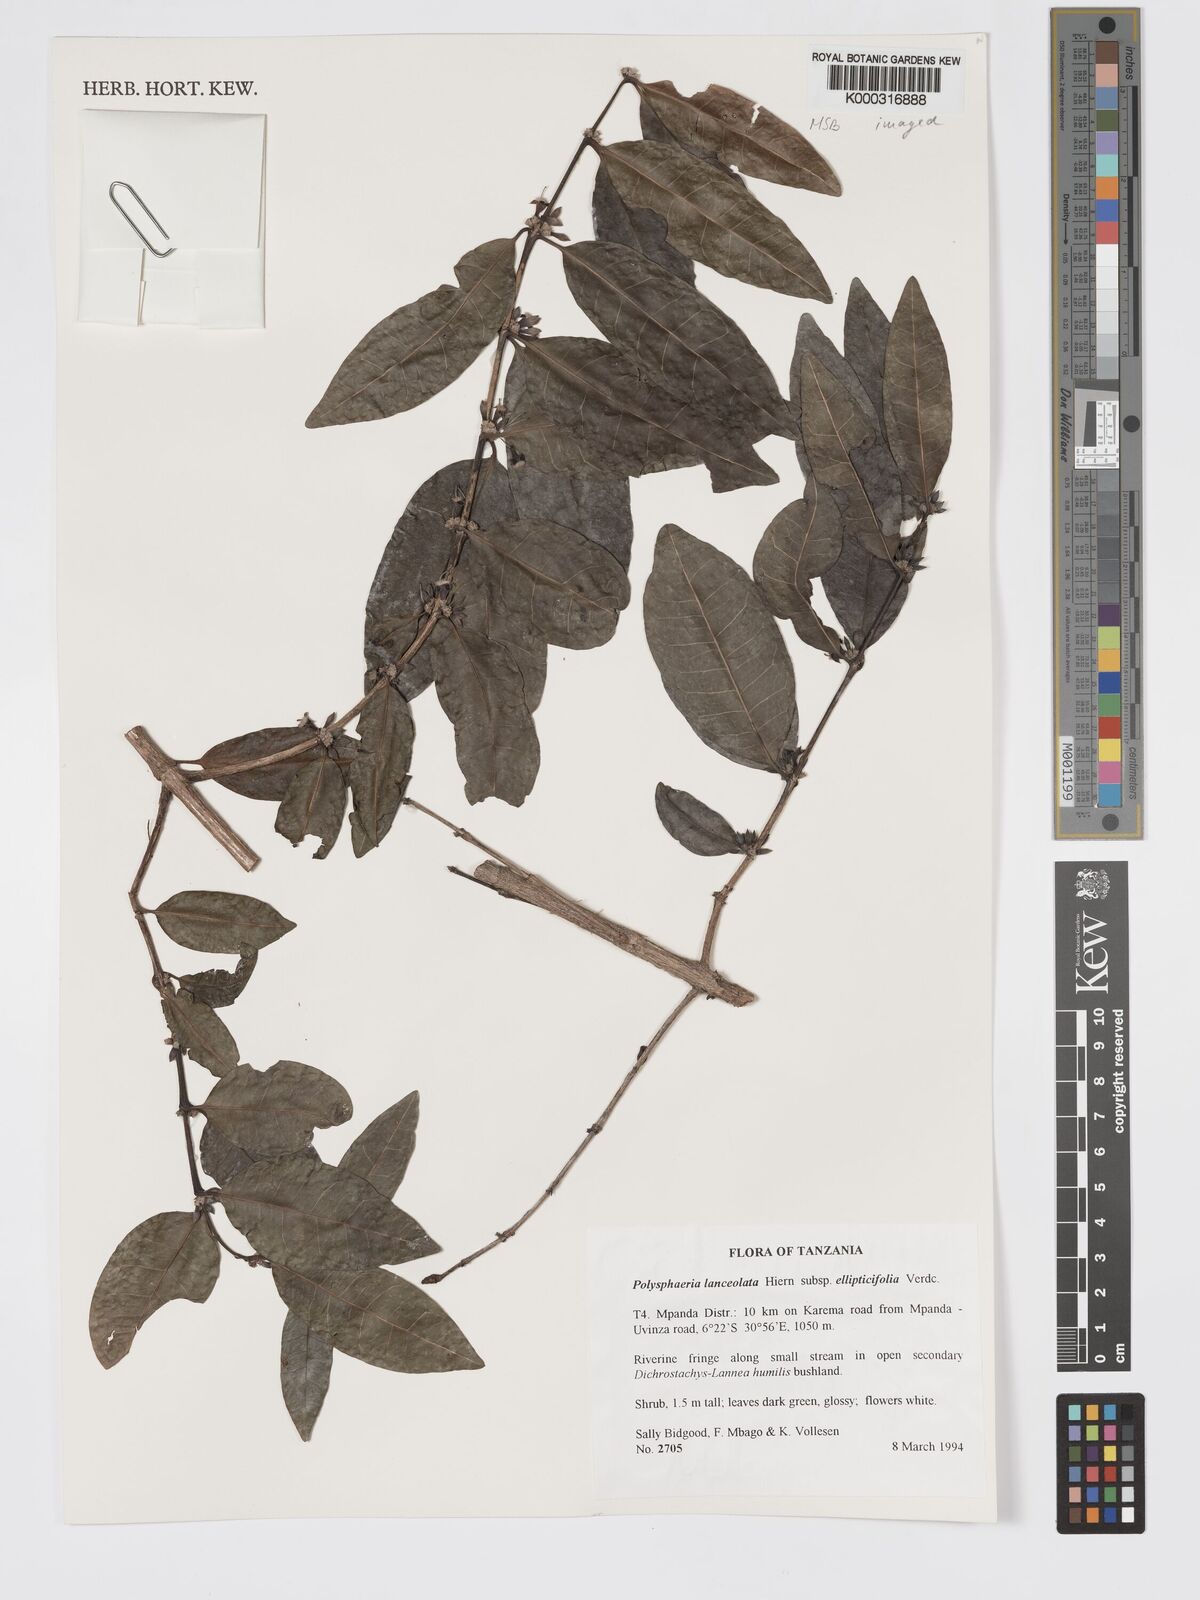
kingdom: Plantae
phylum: Tracheophyta
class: Magnoliopsida
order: Gentianales
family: Rubiaceae
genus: Polysphaeria
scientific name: Polysphaeria lanceolata
